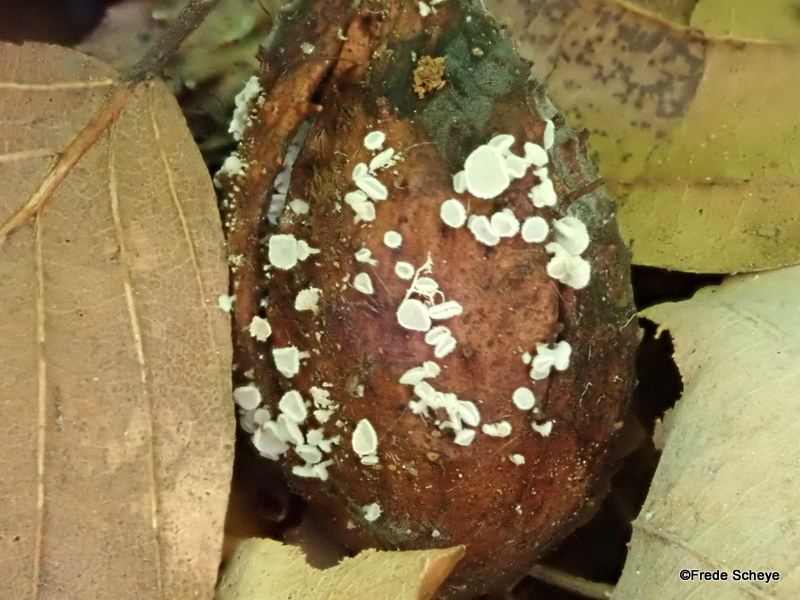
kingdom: Fungi
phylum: Ascomycota
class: Leotiomycetes
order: Helotiales
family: Lachnaceae
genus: Lachnum
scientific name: Lachnum virgineum
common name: jomfru-frynseskive
